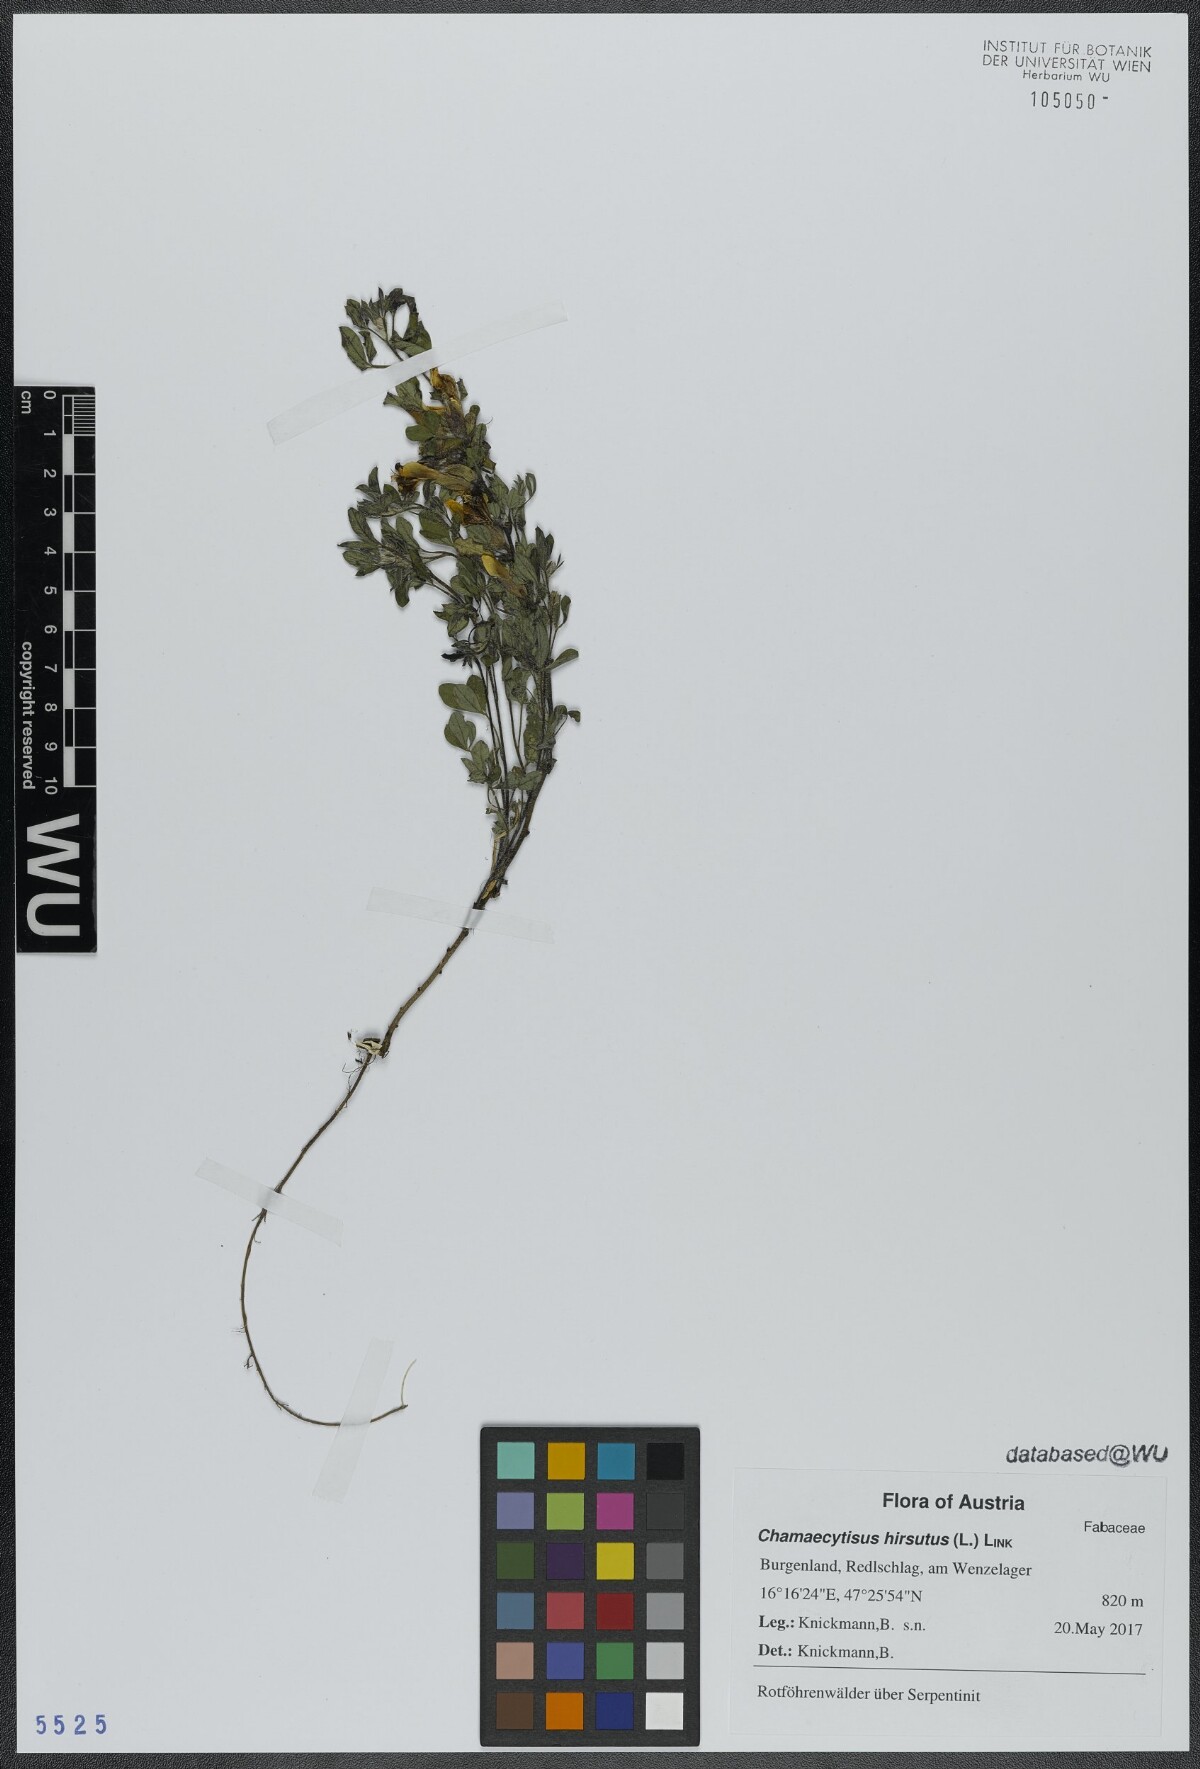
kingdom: Plantae
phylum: Tracheophyta
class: Magnoliopsida
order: Fabales
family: Fabaceae
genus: Chamaecytisus
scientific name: Chamaecytisus hirsutus
